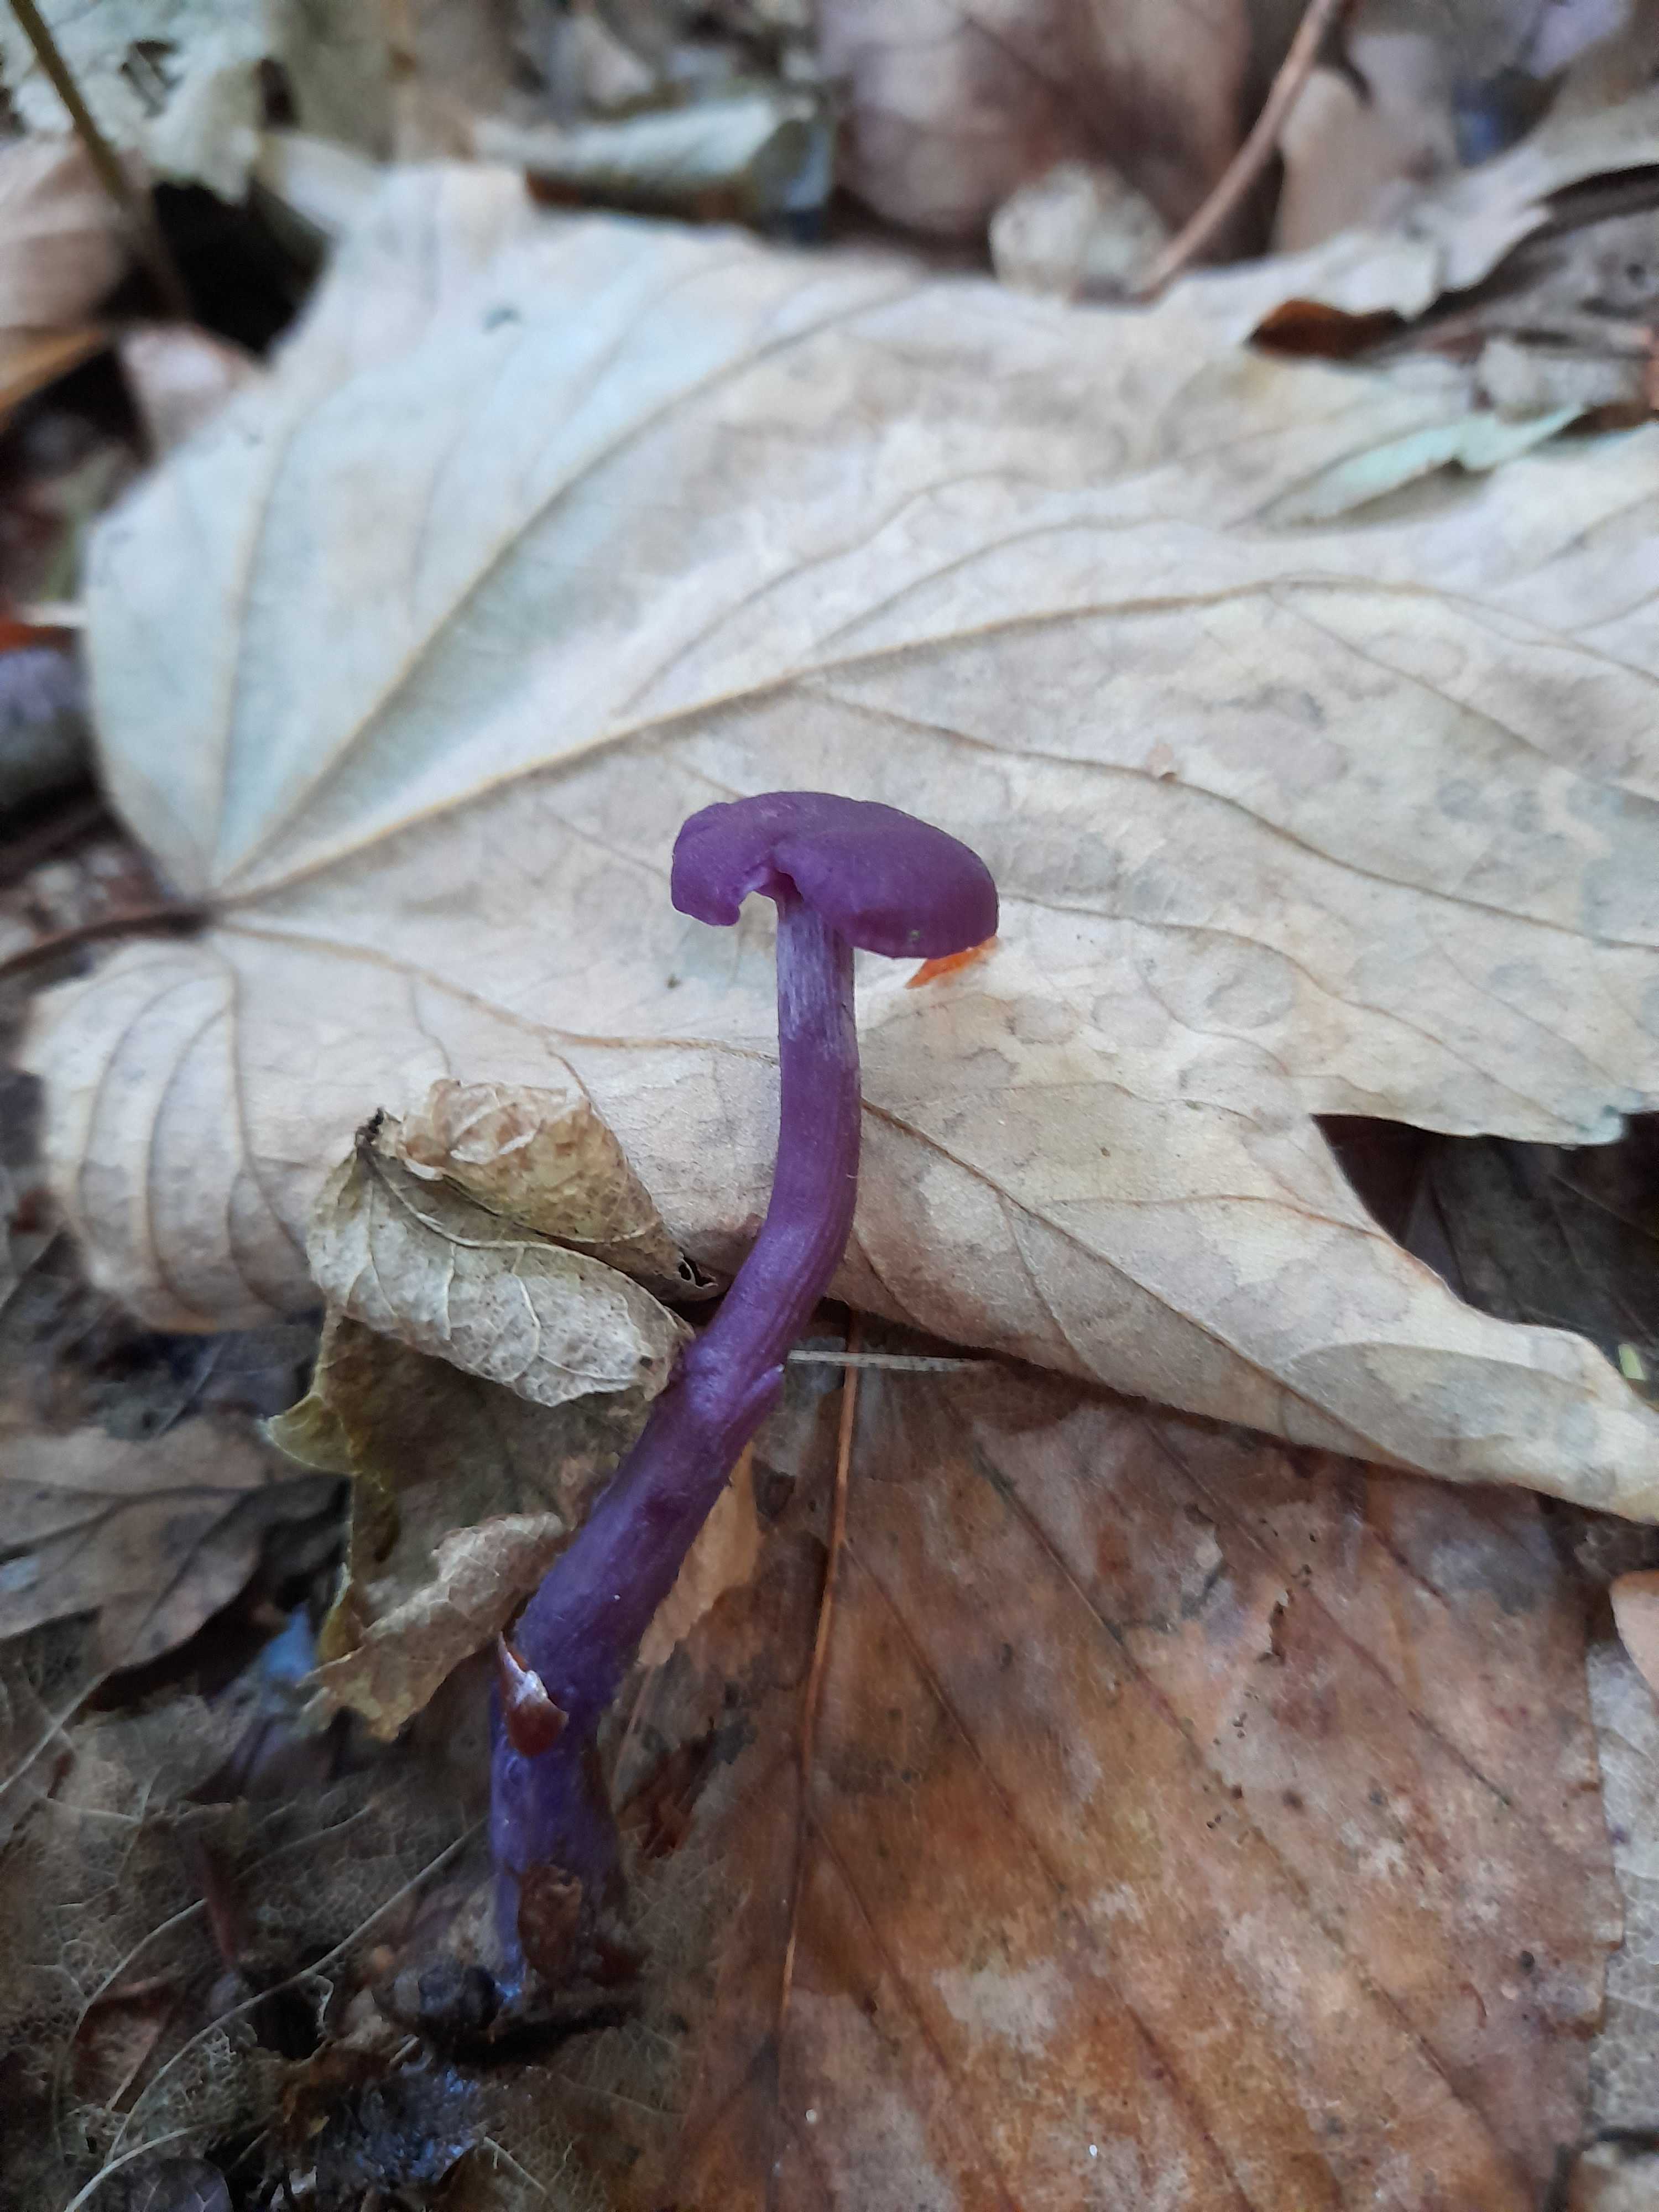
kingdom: Fungi
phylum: Basidiomycota
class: Agaricomycetes
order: Agaricales
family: Hydnangiaceae
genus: Laccaria
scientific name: Laccaria amethystina
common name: violet ametysthat
